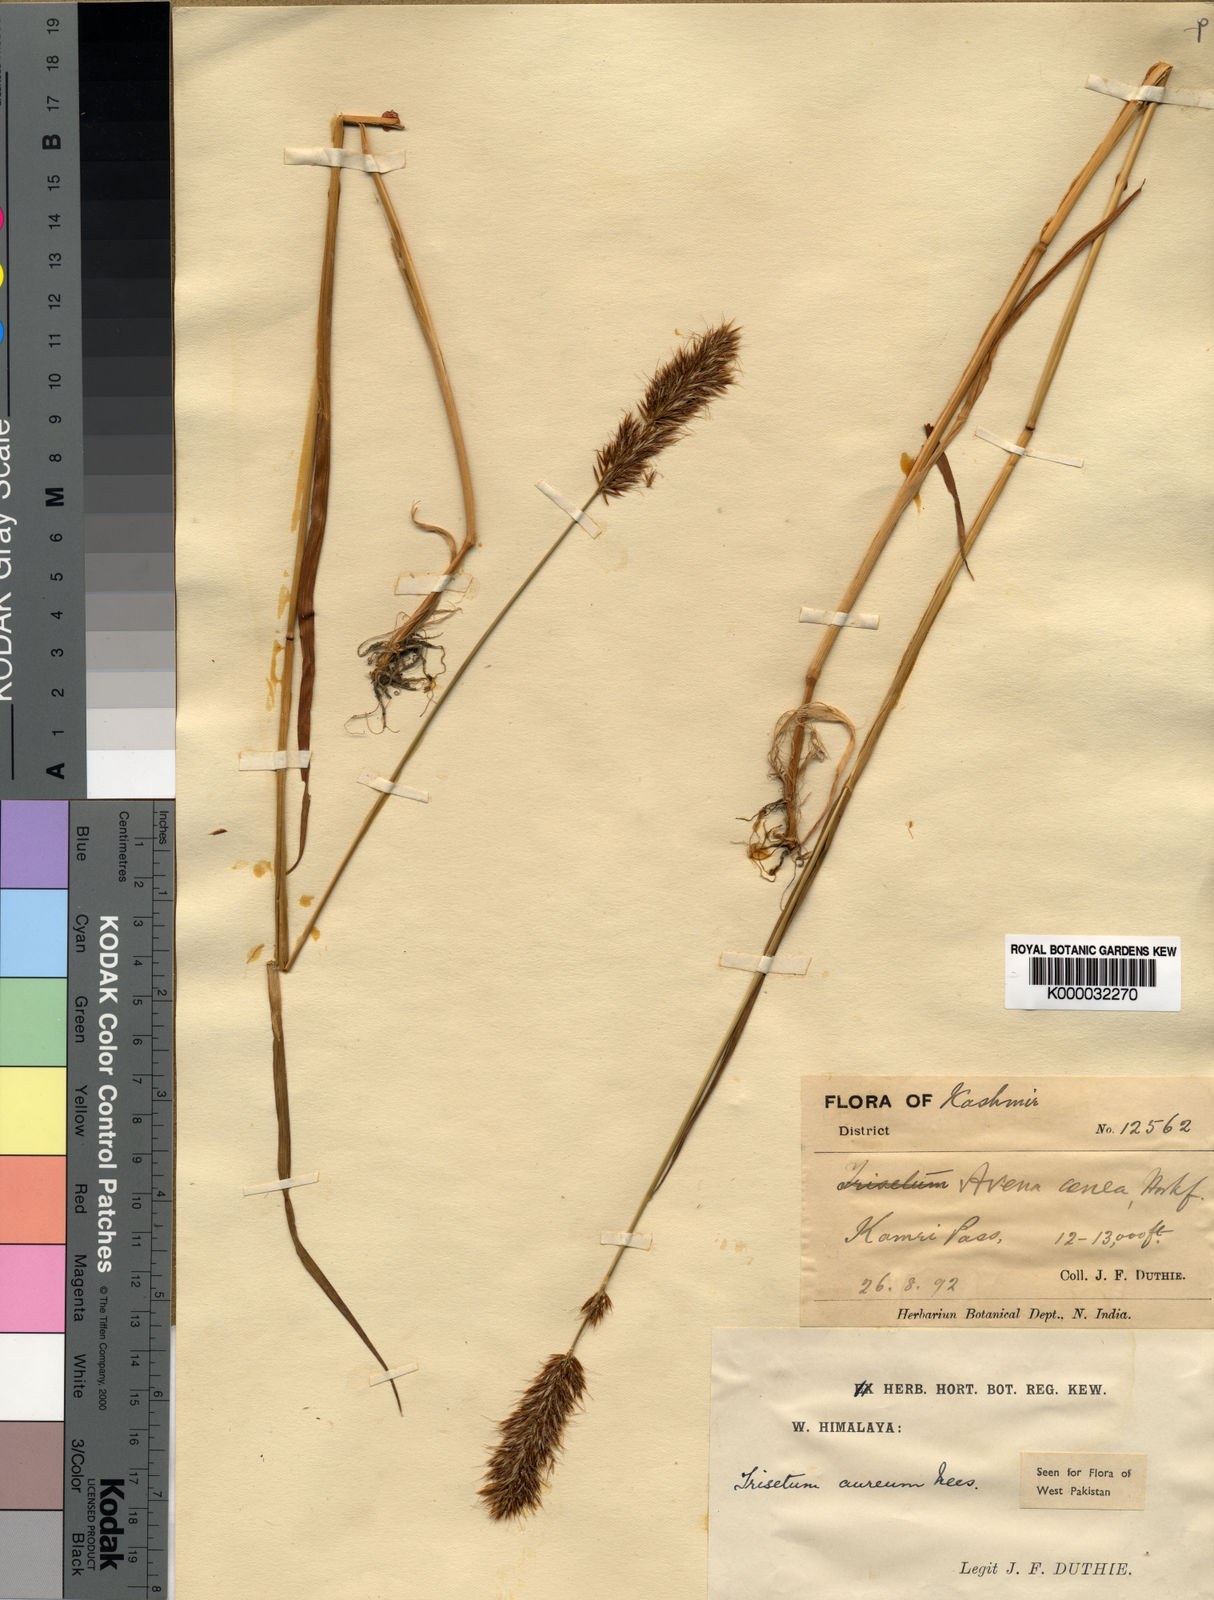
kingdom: Plantae
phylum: Tracheophyta
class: Liliopsida
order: Poales
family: Poaceae
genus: Sibirotrisetum
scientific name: Sibirotrisetum aeneum
